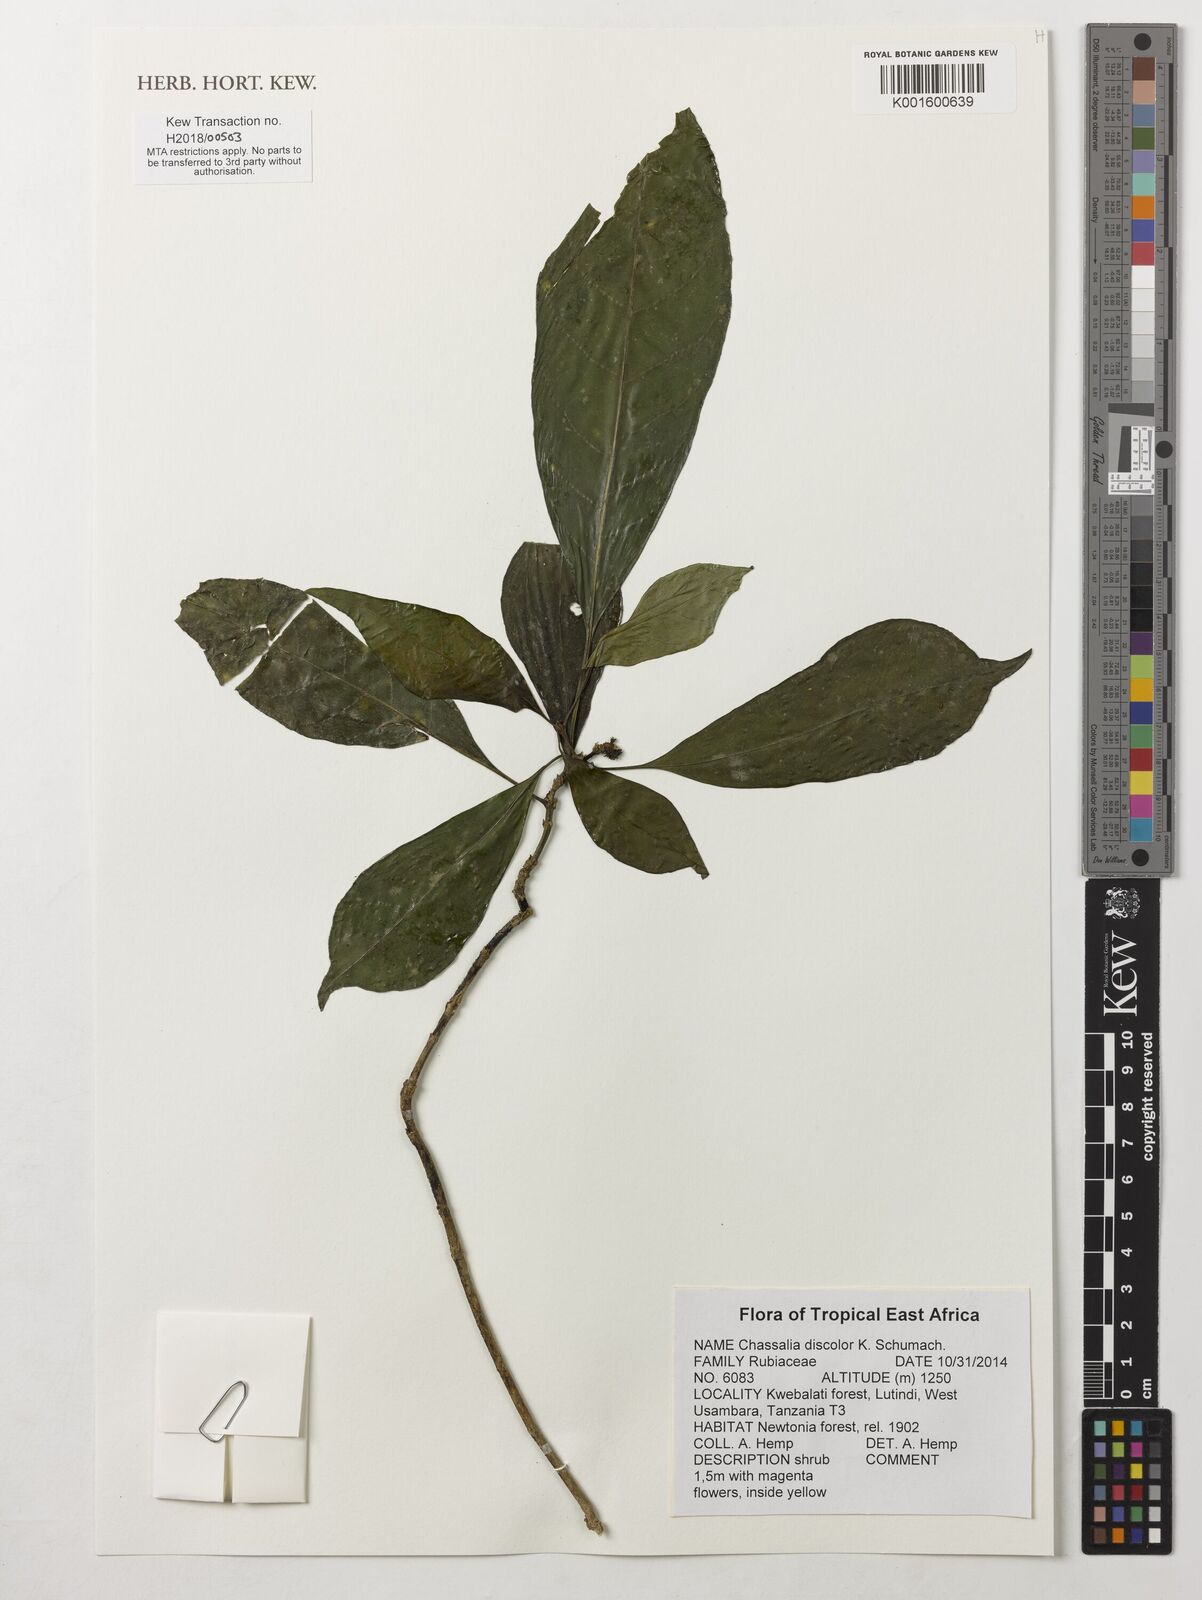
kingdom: Plantae
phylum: Tracheophyta
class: Magnoliopsida
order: Gentianales
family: Rubiaceae
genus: Chassalia
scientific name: Chassalia discolor
